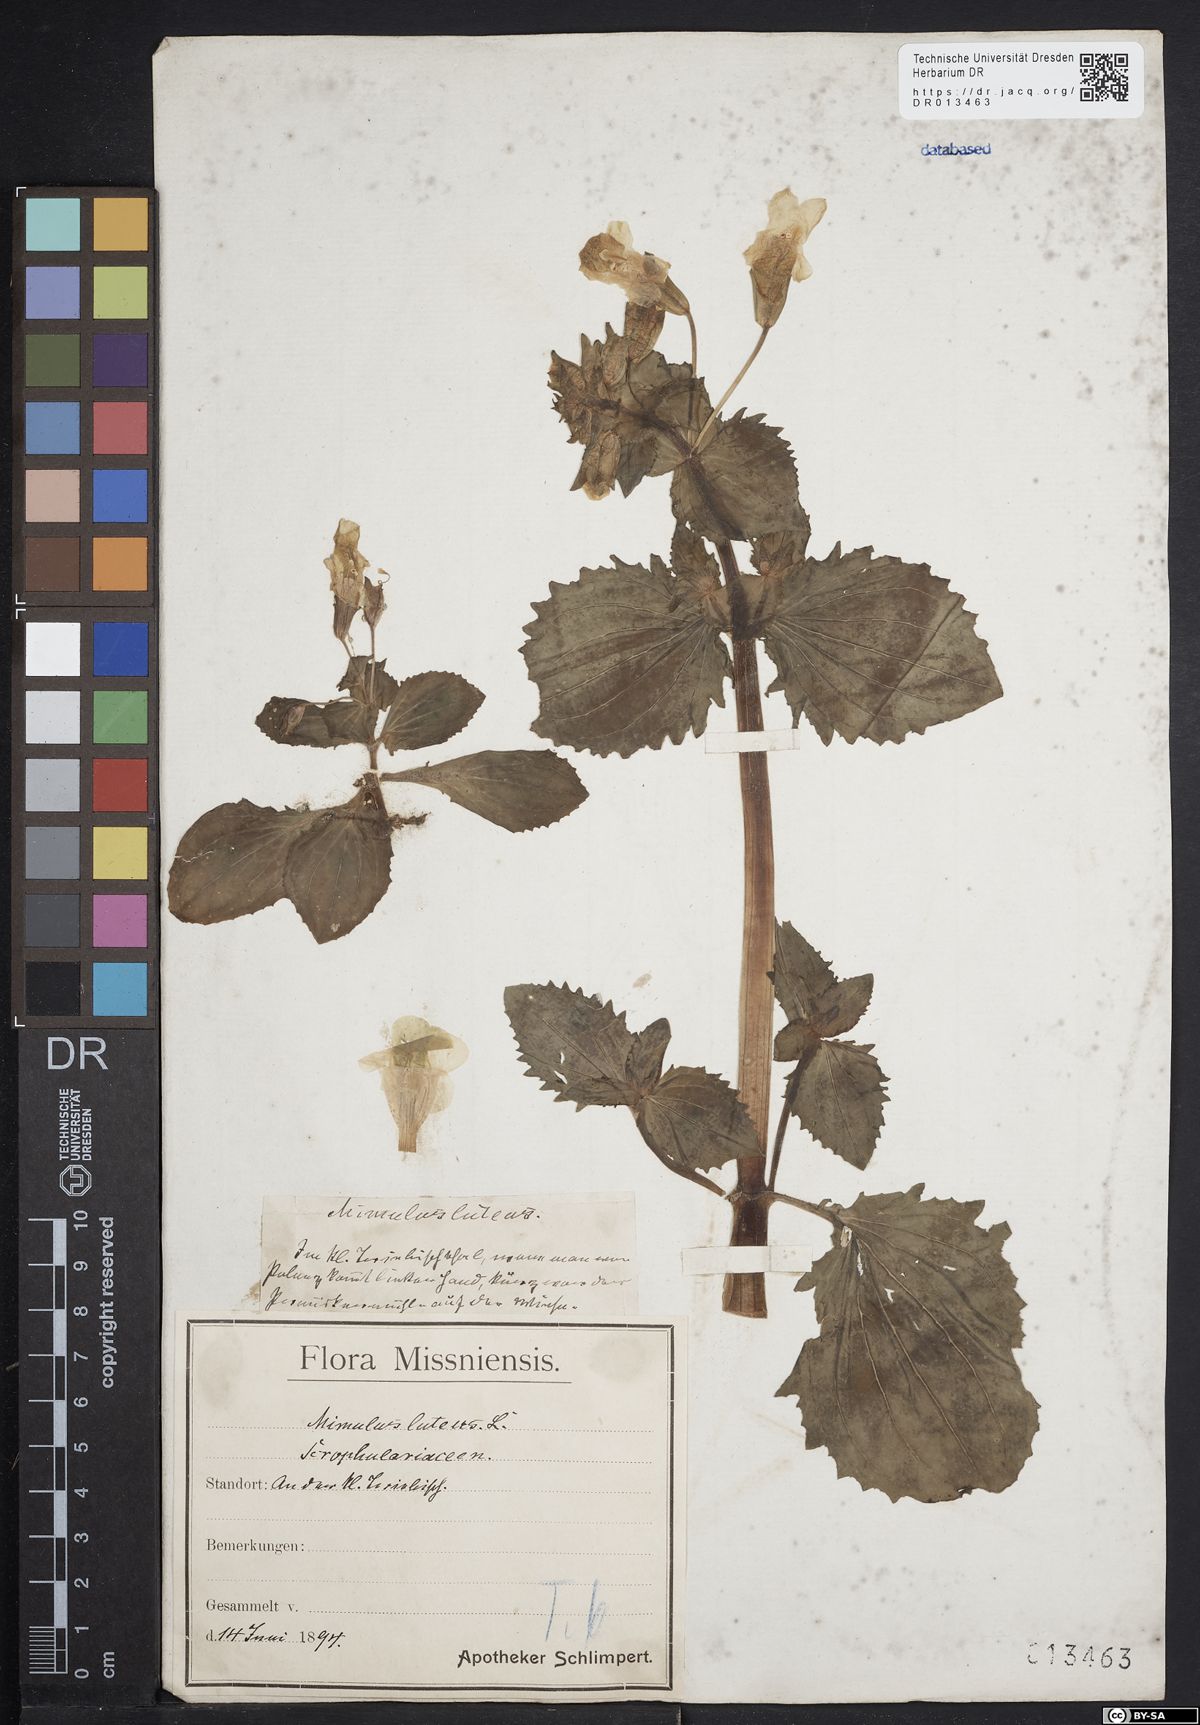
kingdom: Plantae
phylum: Tracheophyta
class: Magnoliopsida
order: Lamiales
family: Phrymaceae
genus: Erythranthe
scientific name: Erythranthe guttata
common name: Monkeyflower
